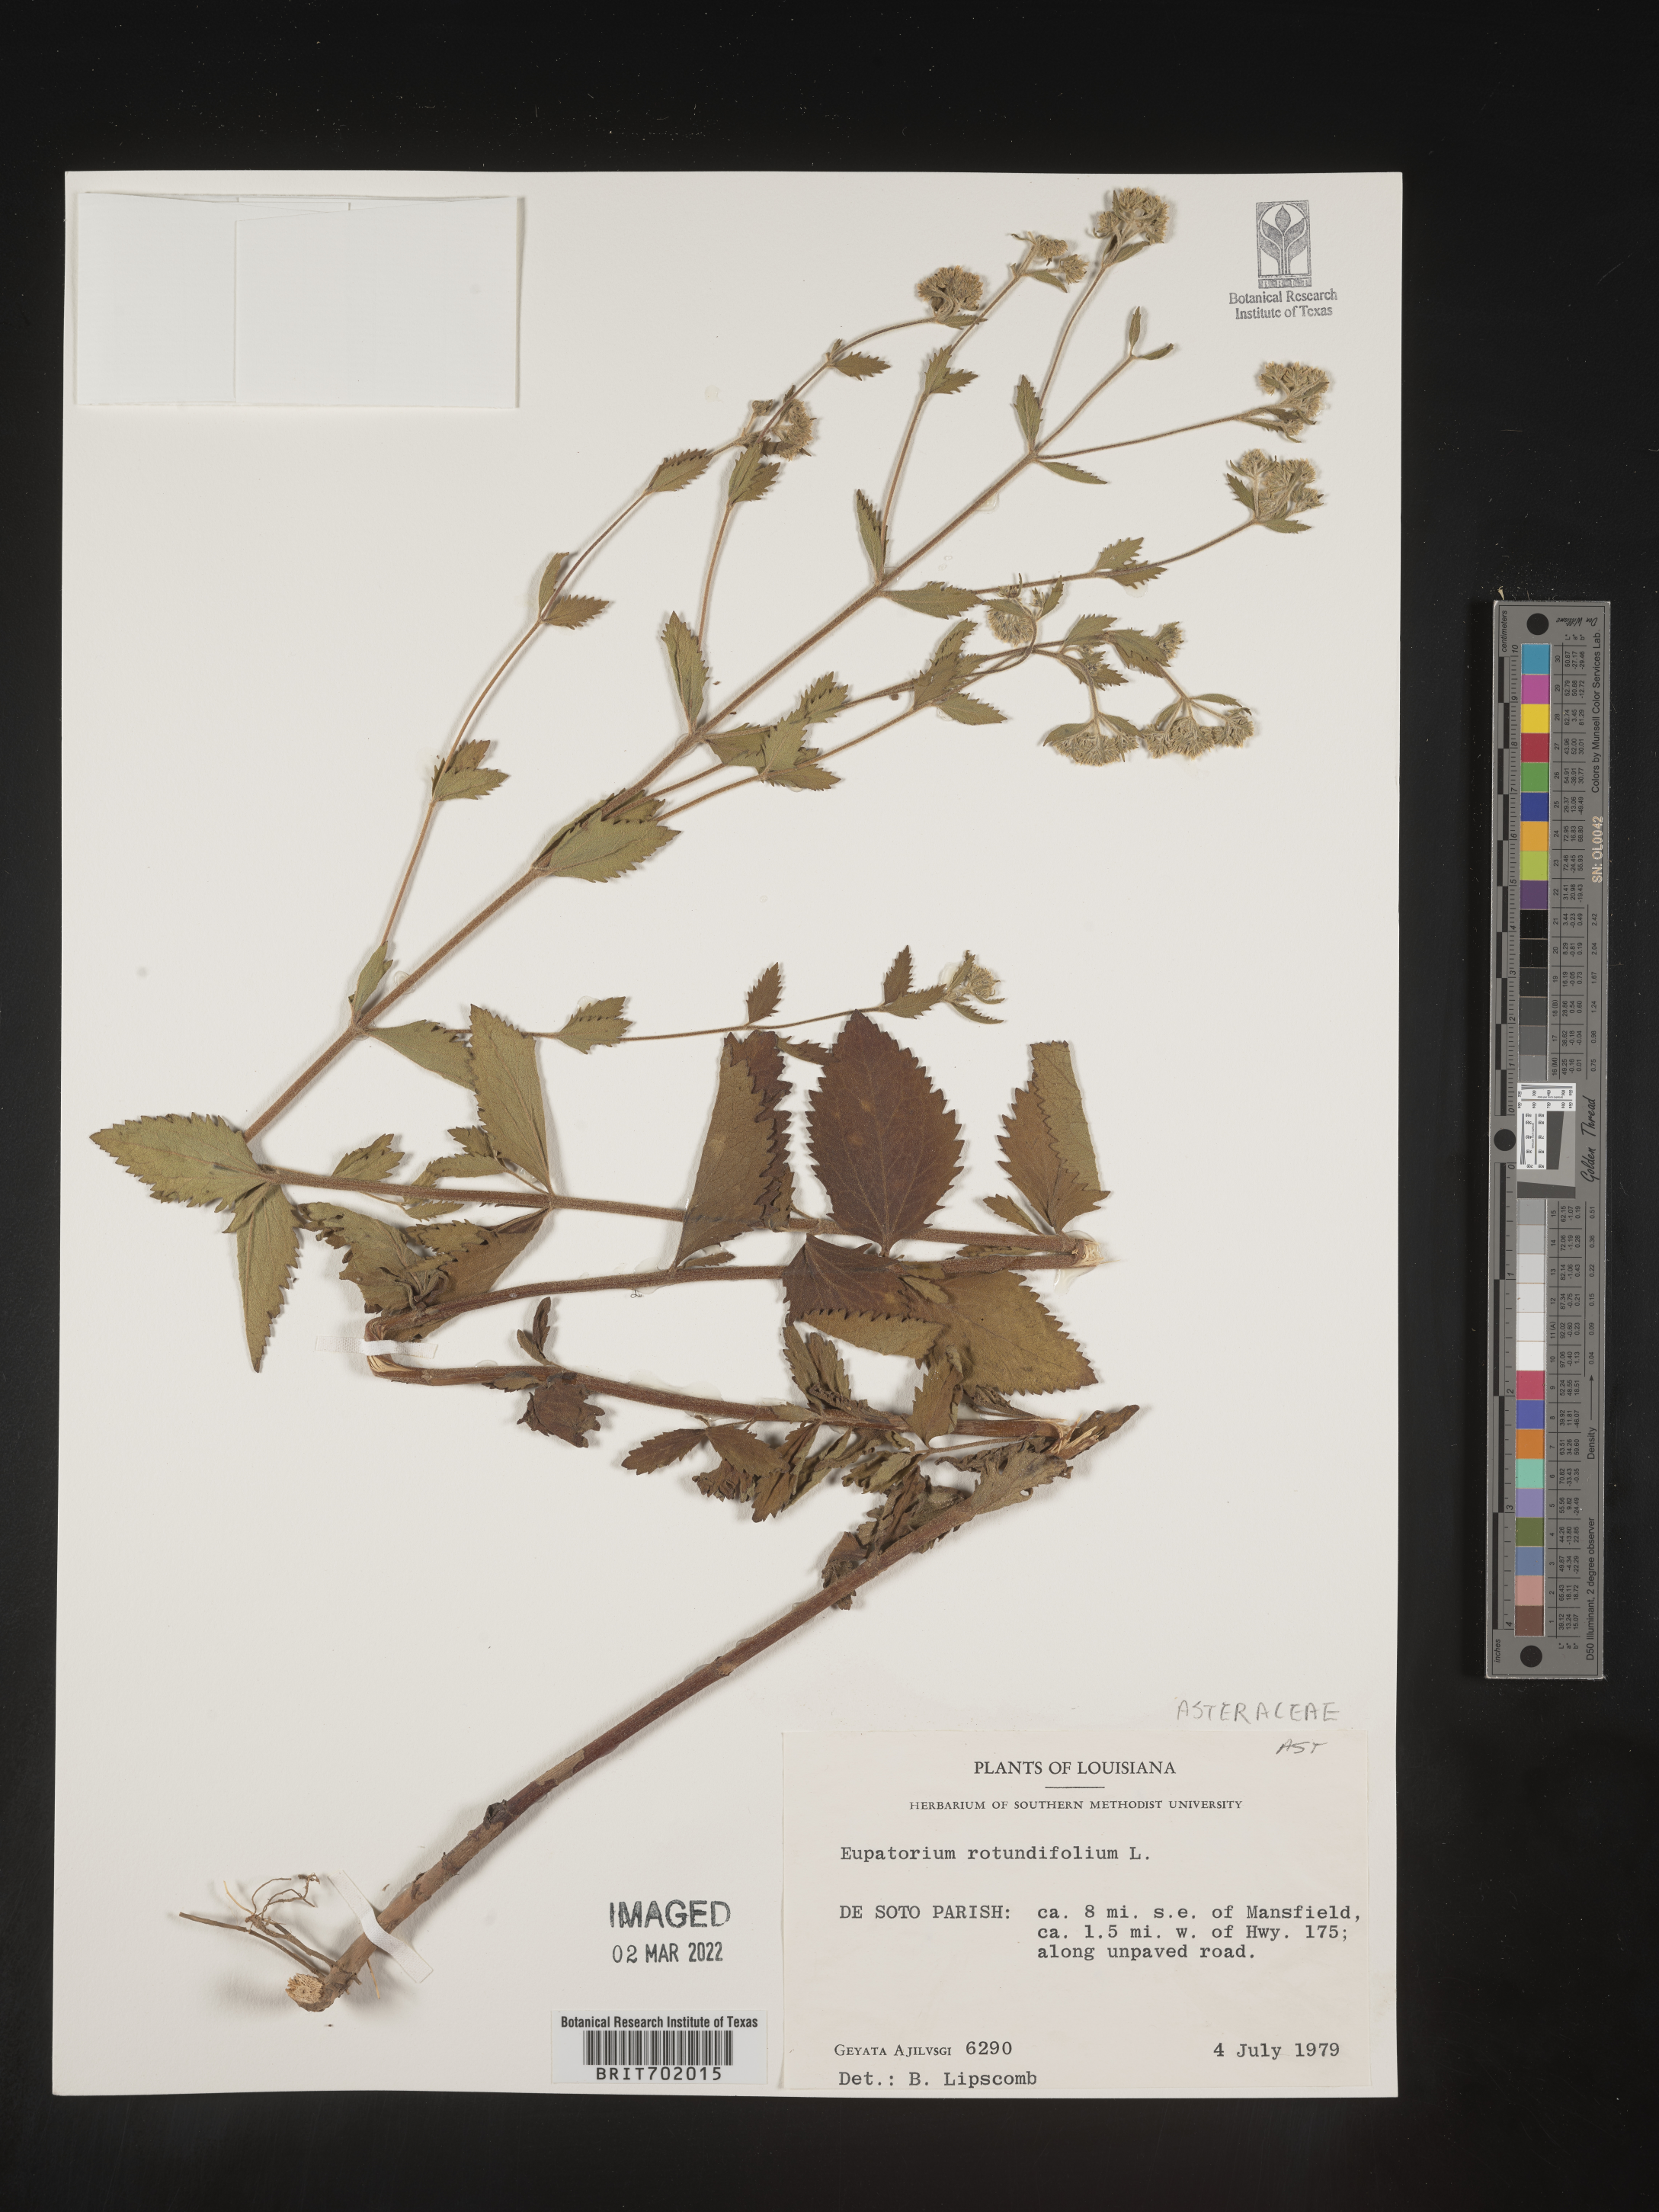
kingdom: Plantae
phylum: Tracheophyta
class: Magnoliopsida
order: Asterales
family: Asteraceae
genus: Eupatorium
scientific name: Eupatorium rotundifolium
